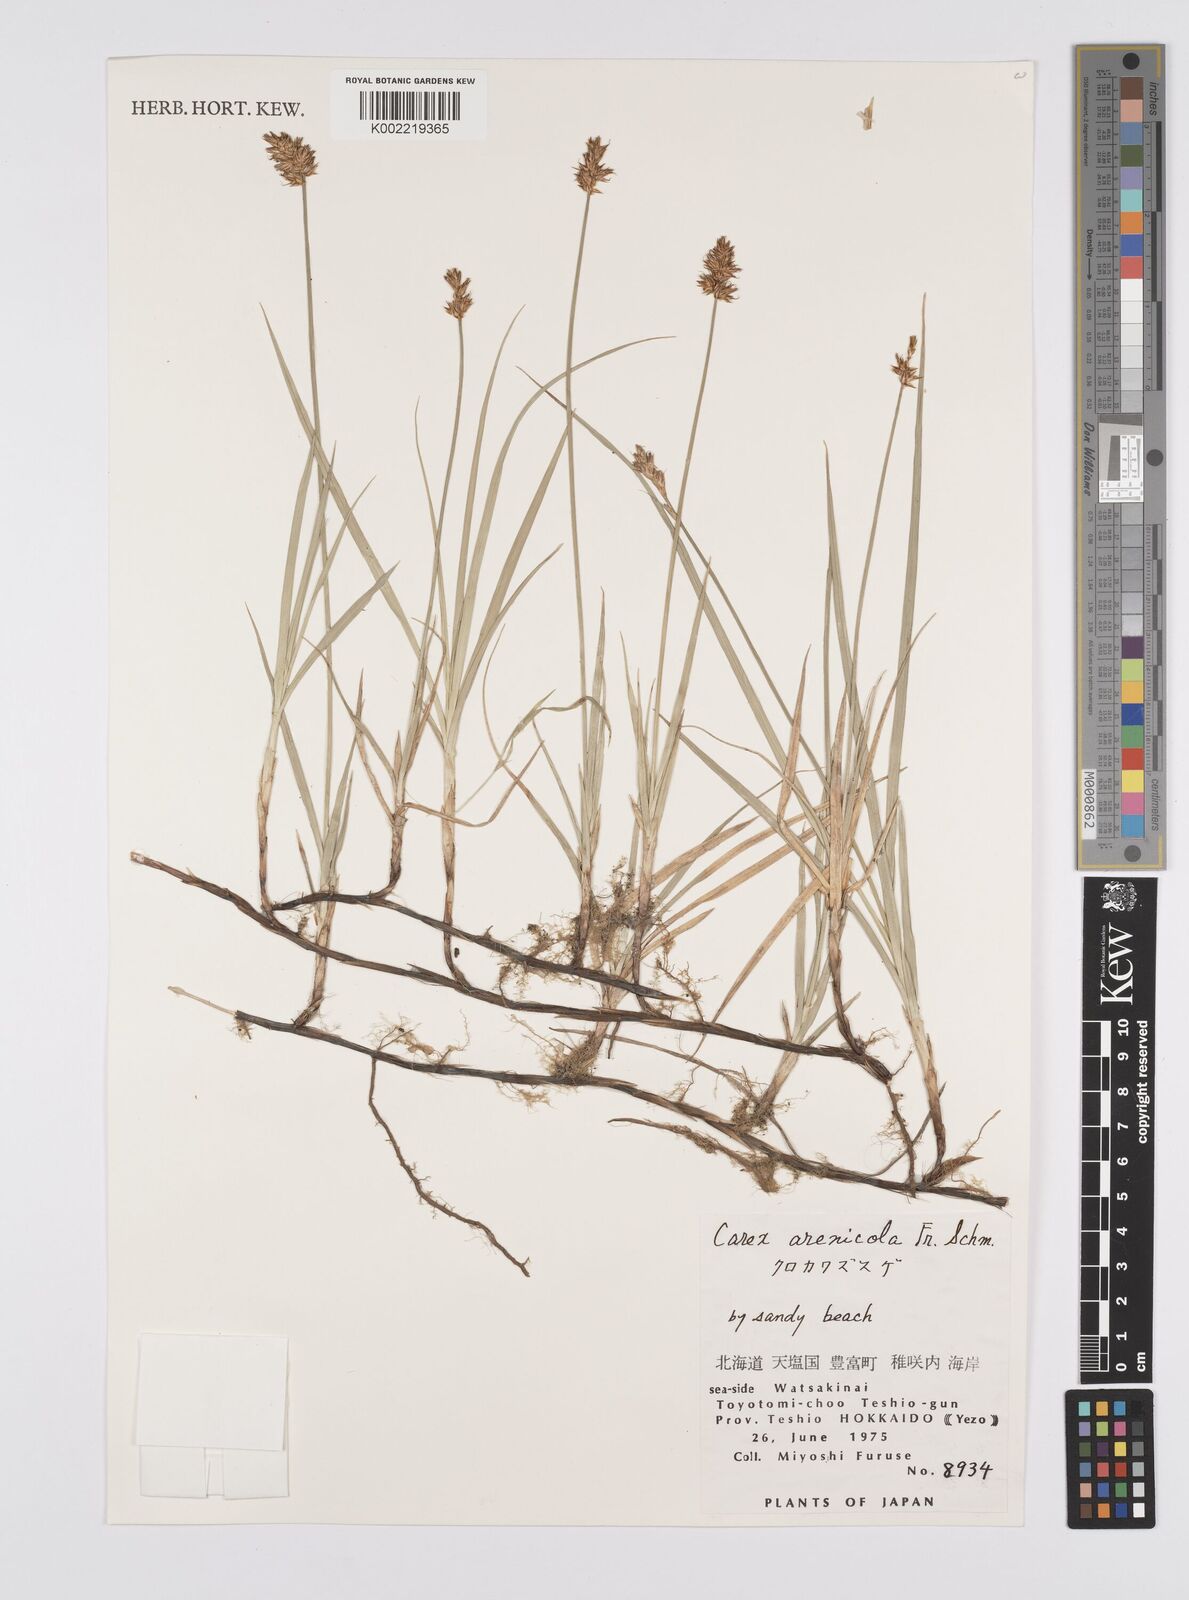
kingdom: Plantae
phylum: Tracheophyta
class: Liliopsida
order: Poales
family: Cyperaceae
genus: Carex
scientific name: Carex arenicola
